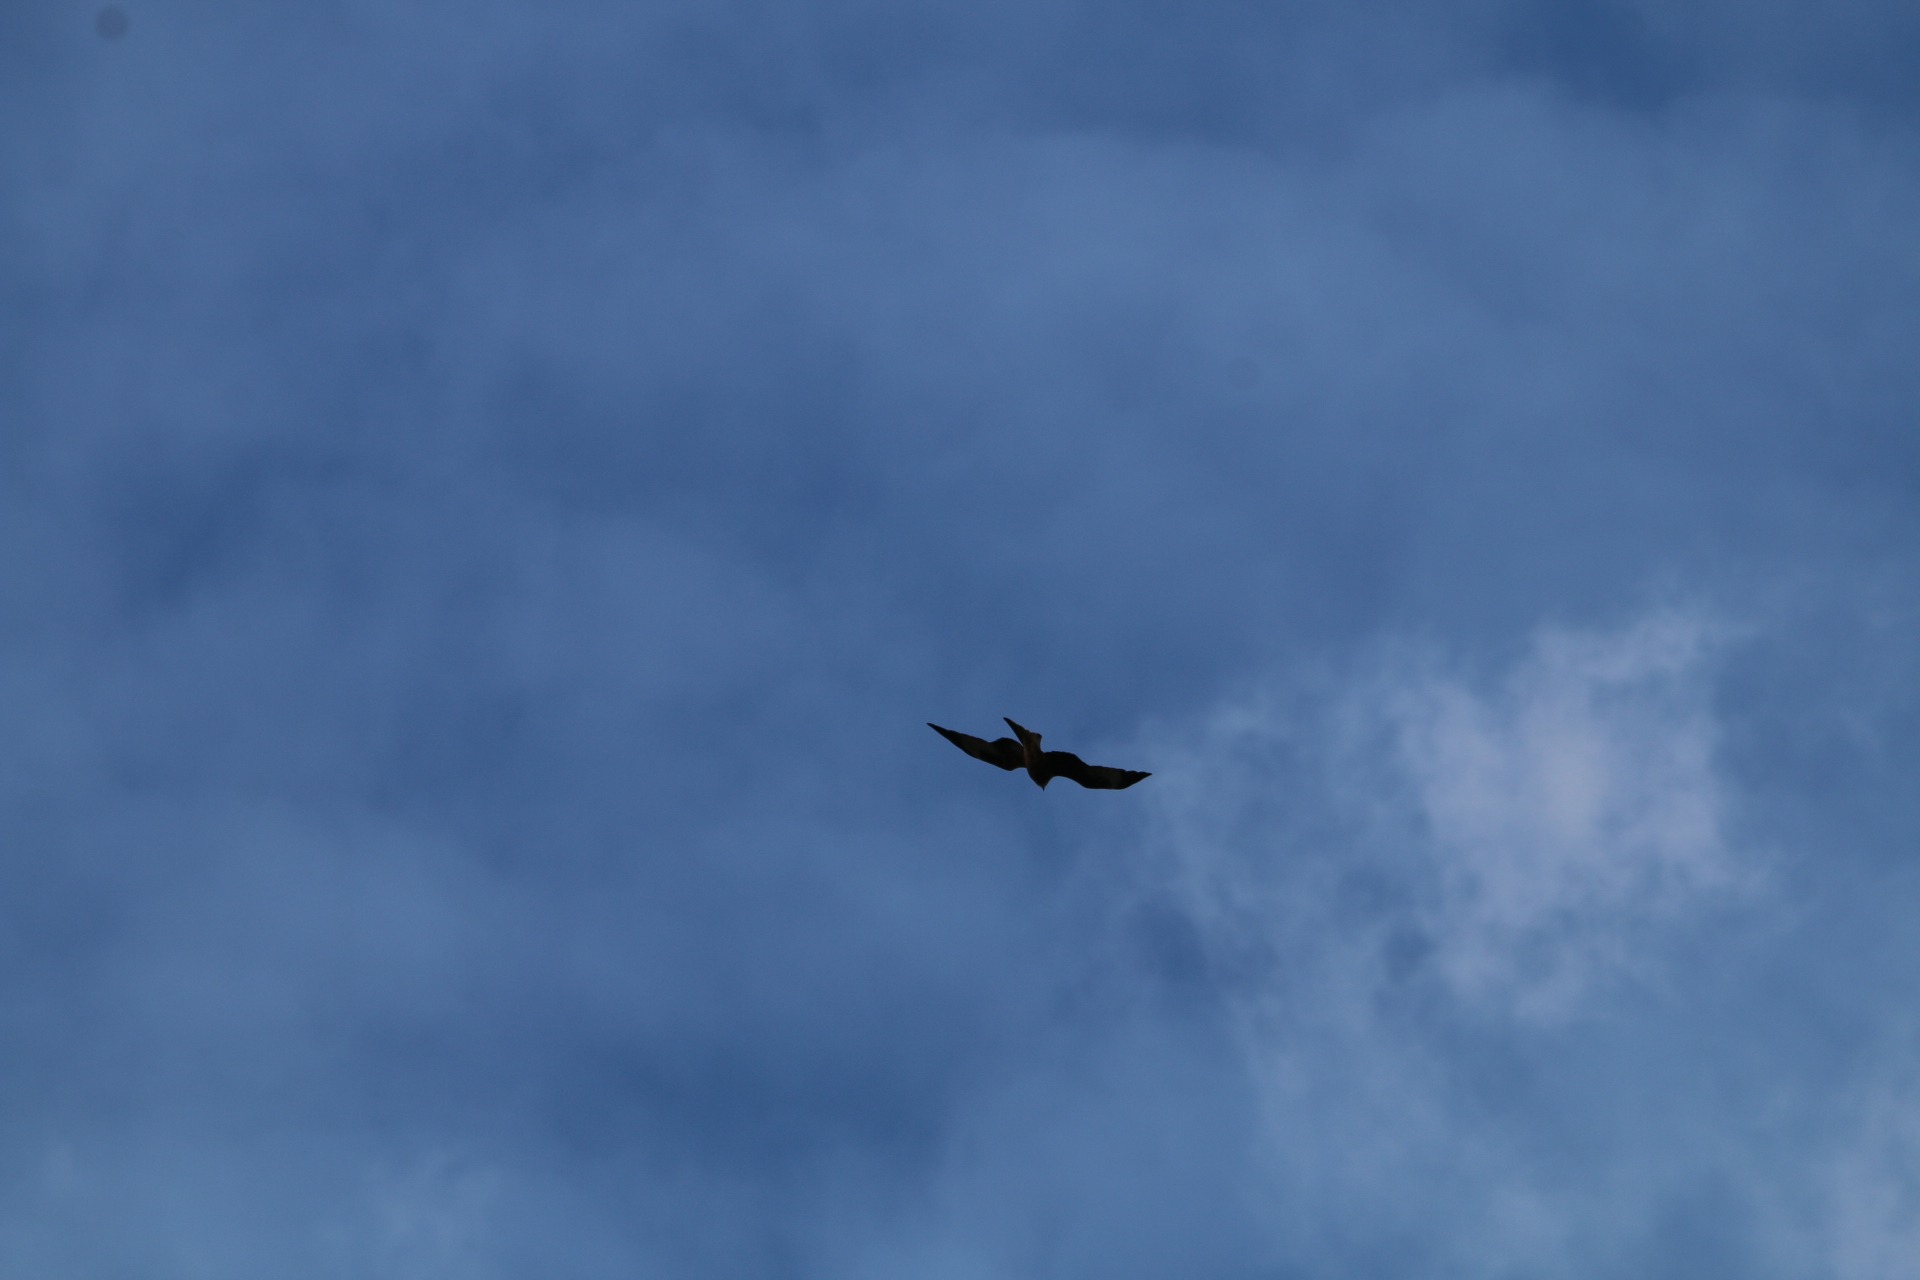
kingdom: Animalia
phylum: Chordata
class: Aves
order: Accipitriformes
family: Accipitridae
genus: Milvus
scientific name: Milvus milvus
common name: Rød glente
